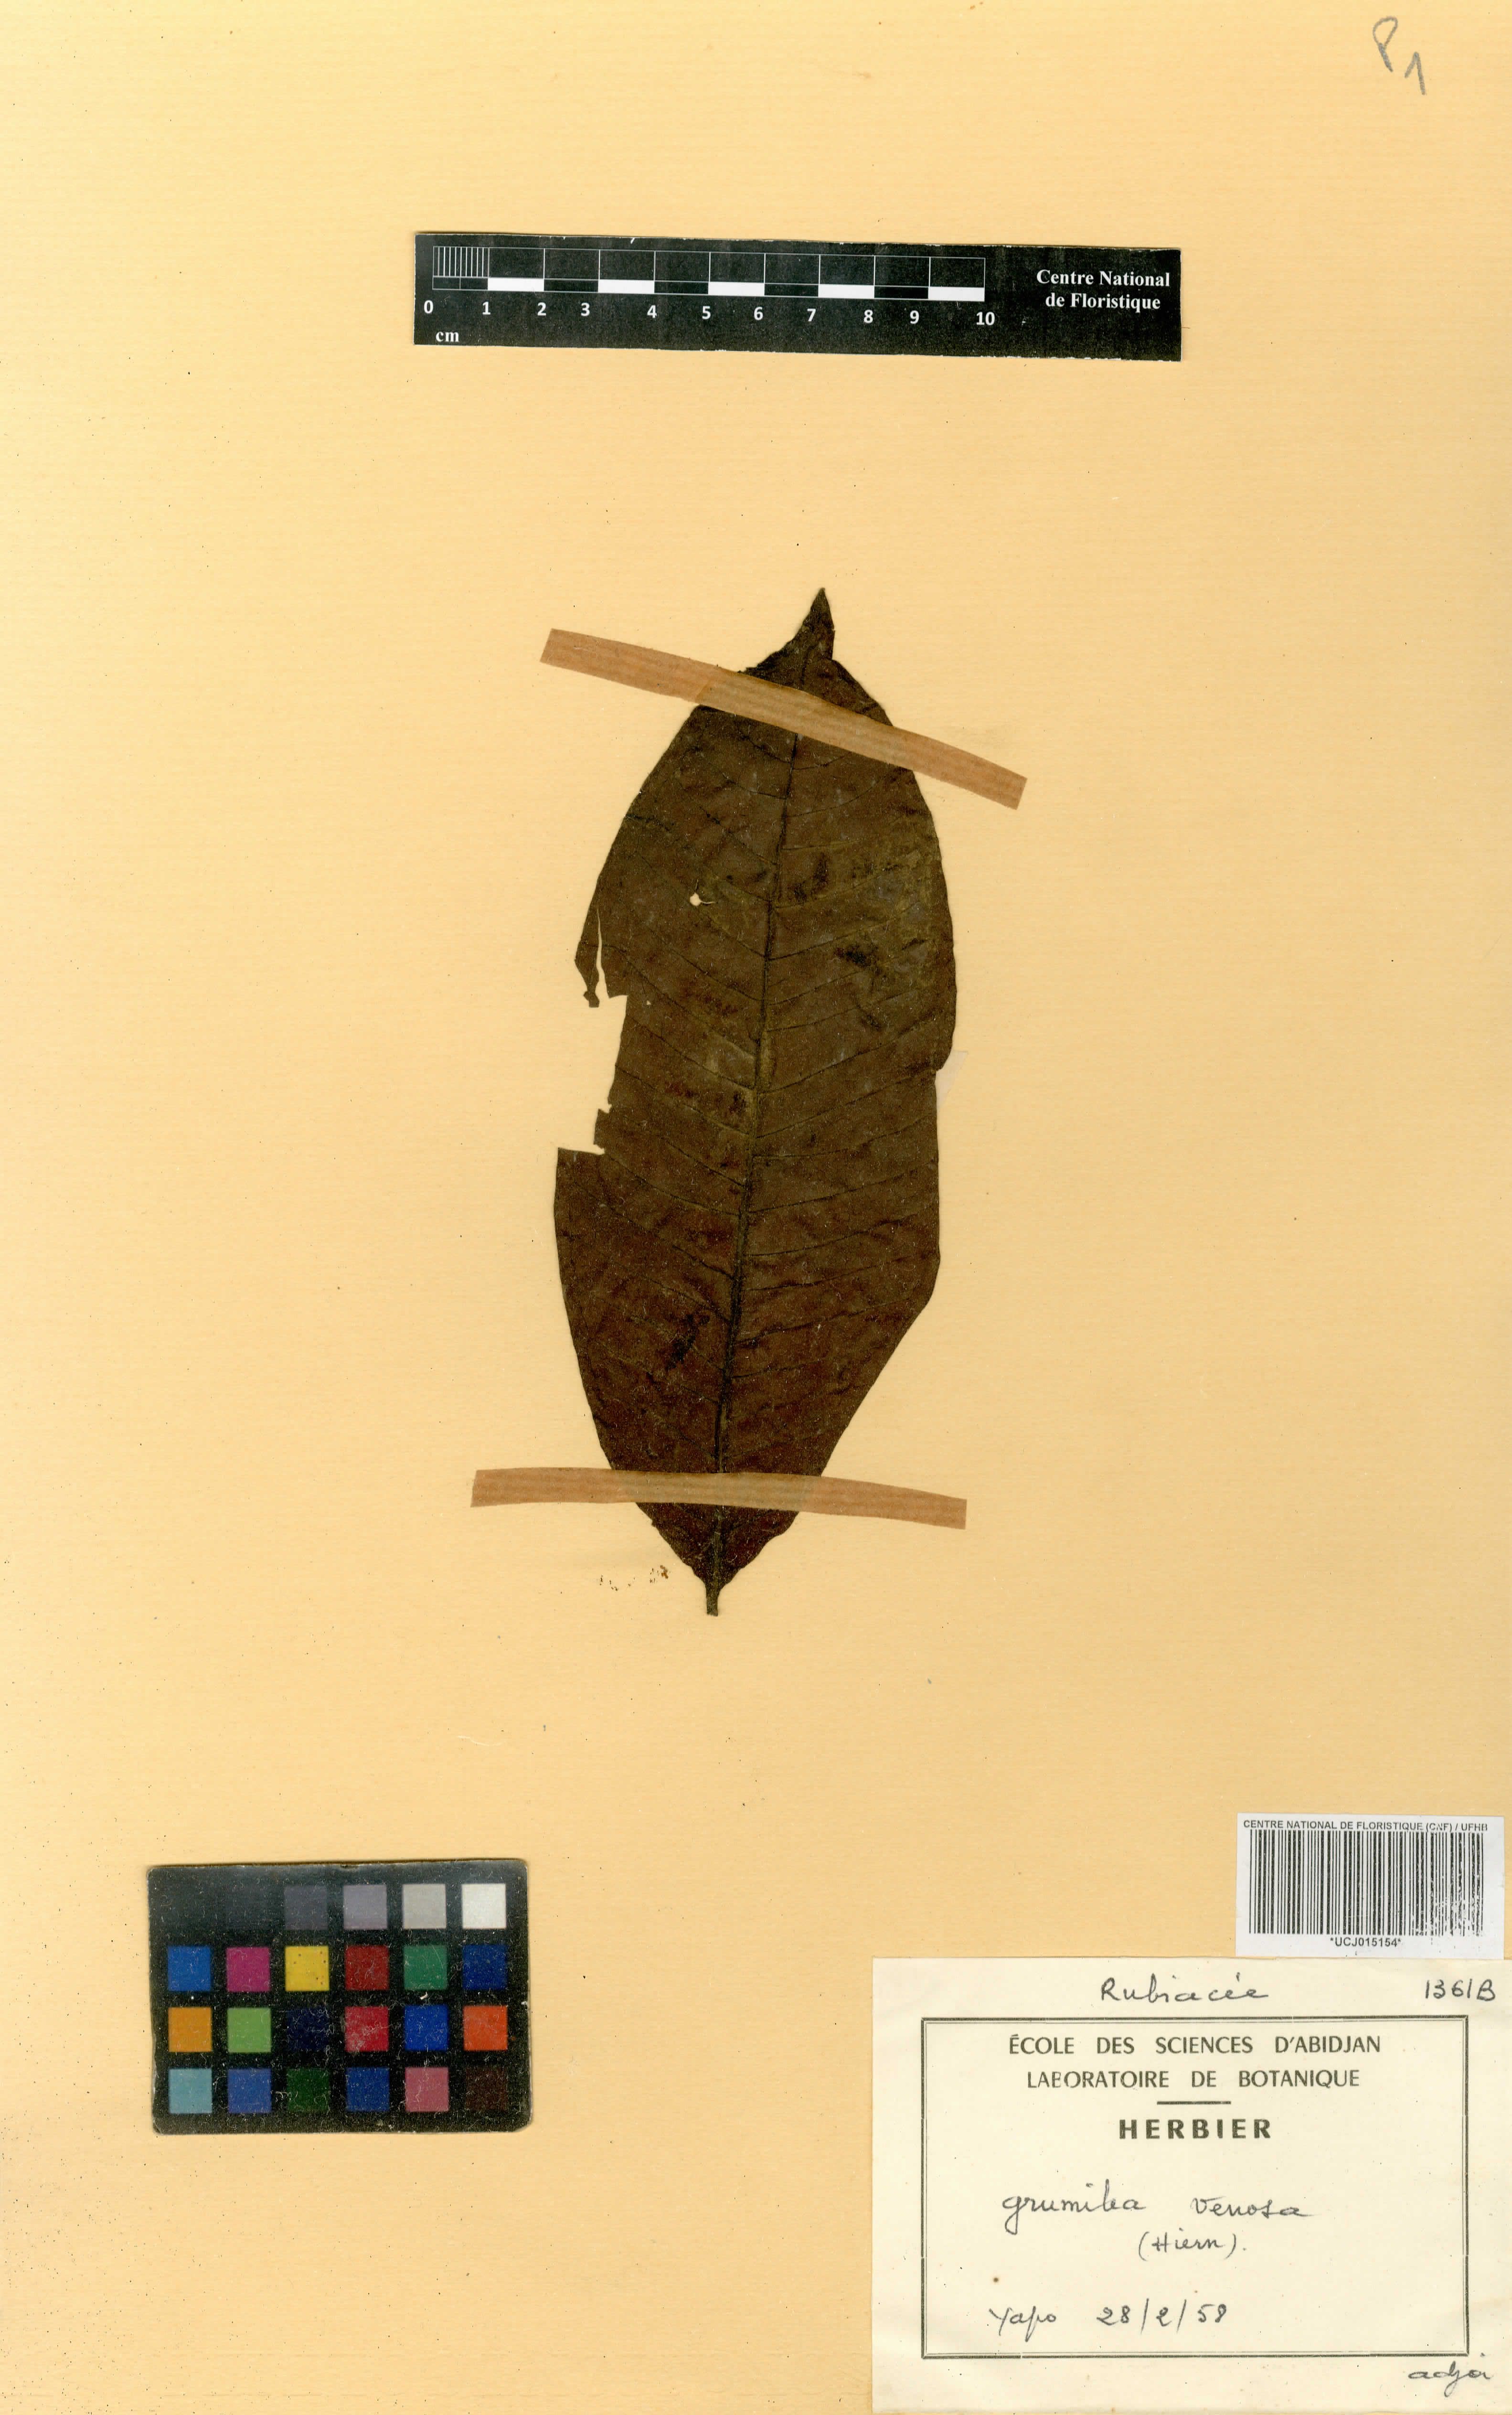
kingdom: Plantae
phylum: Tracheophyta
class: Magnoliopsida
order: Gentianales
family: Rubiaceae
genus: Psychotria
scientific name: Psychotria venosa
